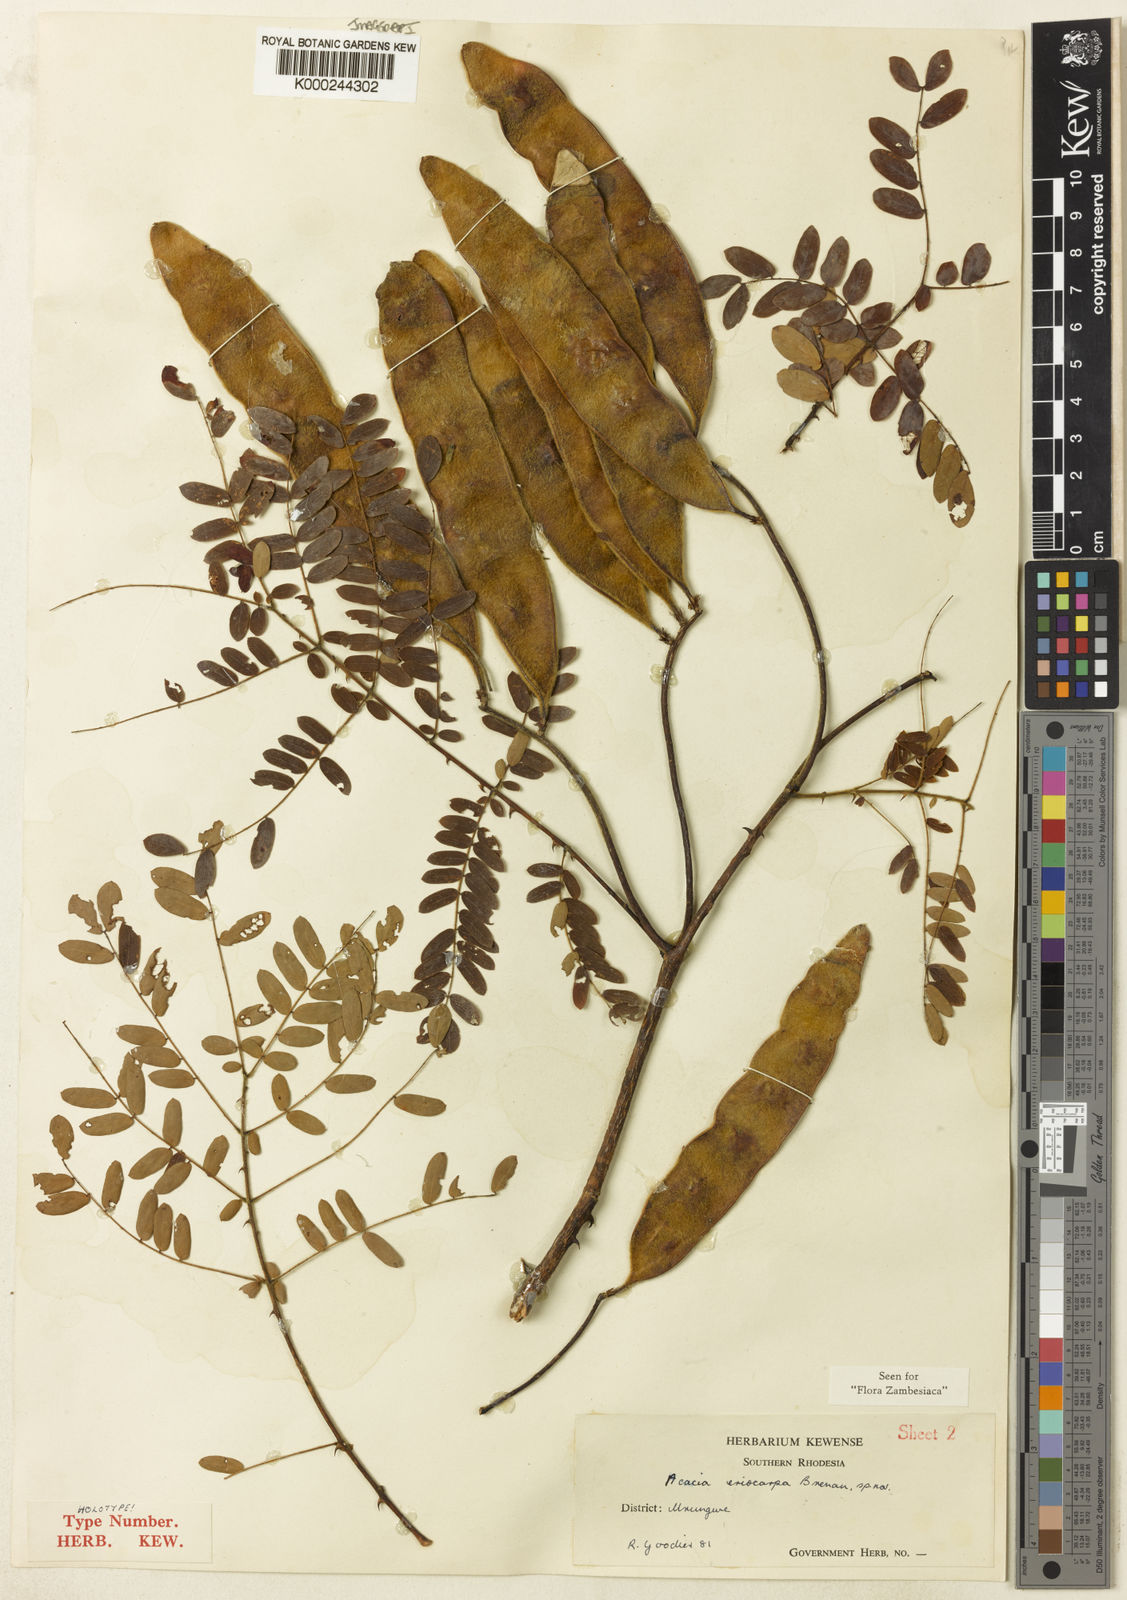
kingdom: Plantae
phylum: Tracheophyta
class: Magnoliopsida
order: Fabales
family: Fabaceae
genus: Senegalia
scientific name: Senegalia eriocarpa
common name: Woolly-pod acacia
